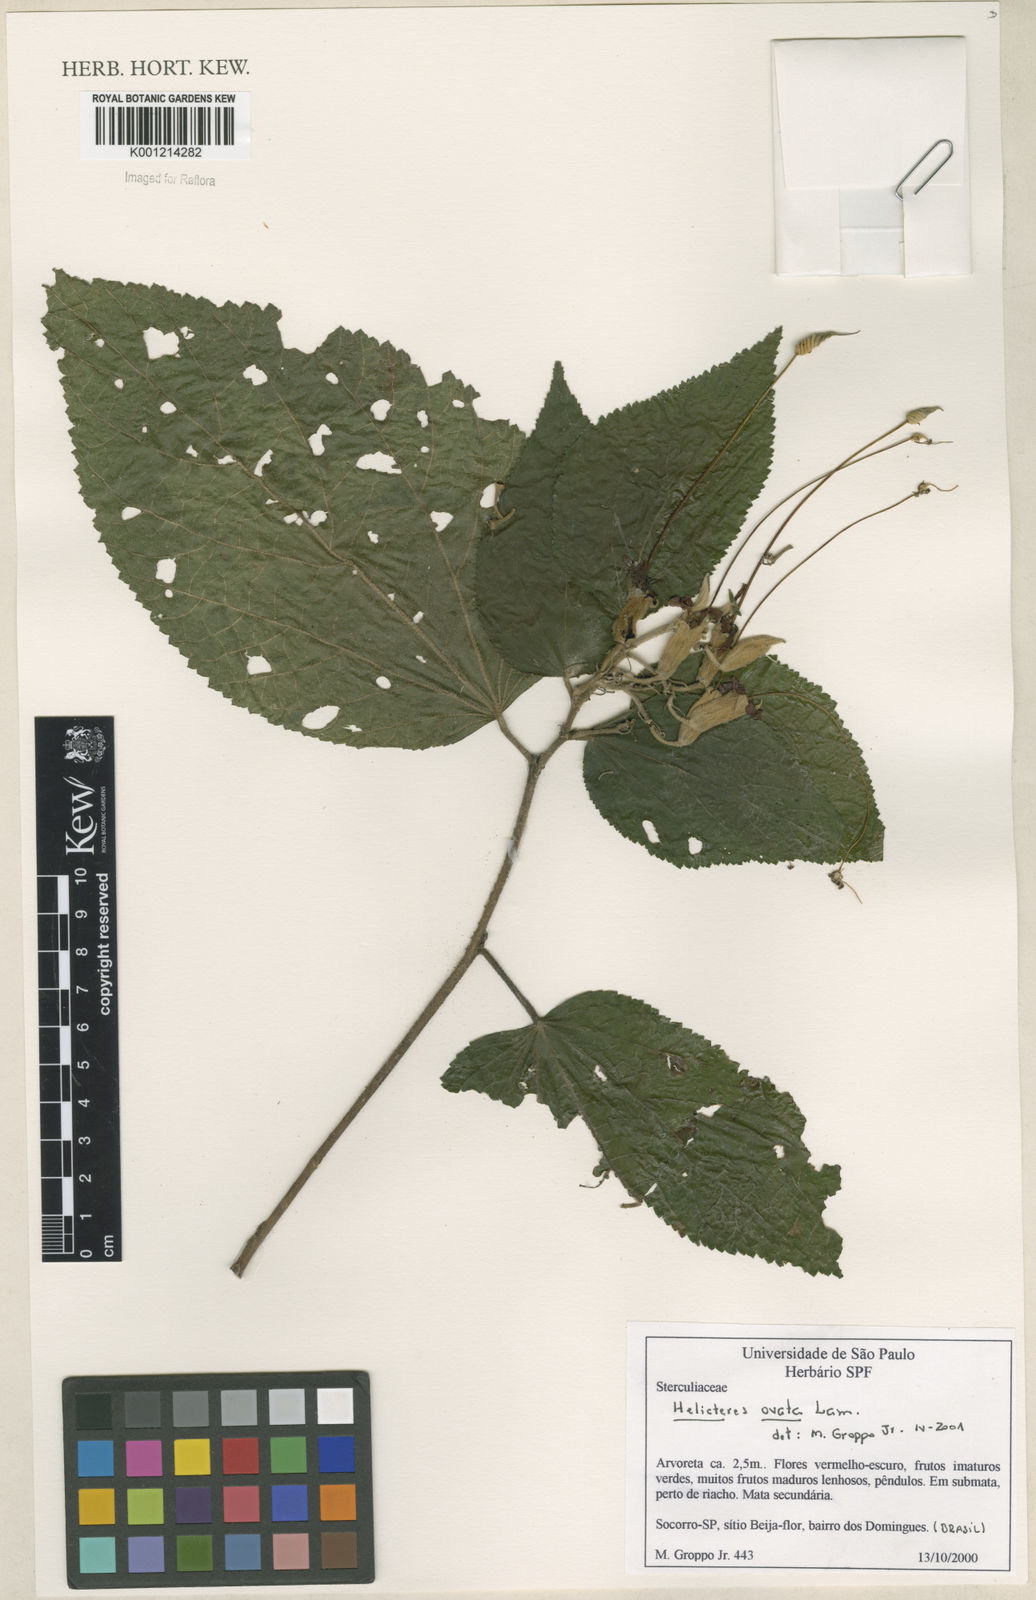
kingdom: Plantae
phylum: Tracheophyta
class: Magnoliopsida
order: Malvales
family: Malvaceae
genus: Helicteres
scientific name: Helicteres ovata
